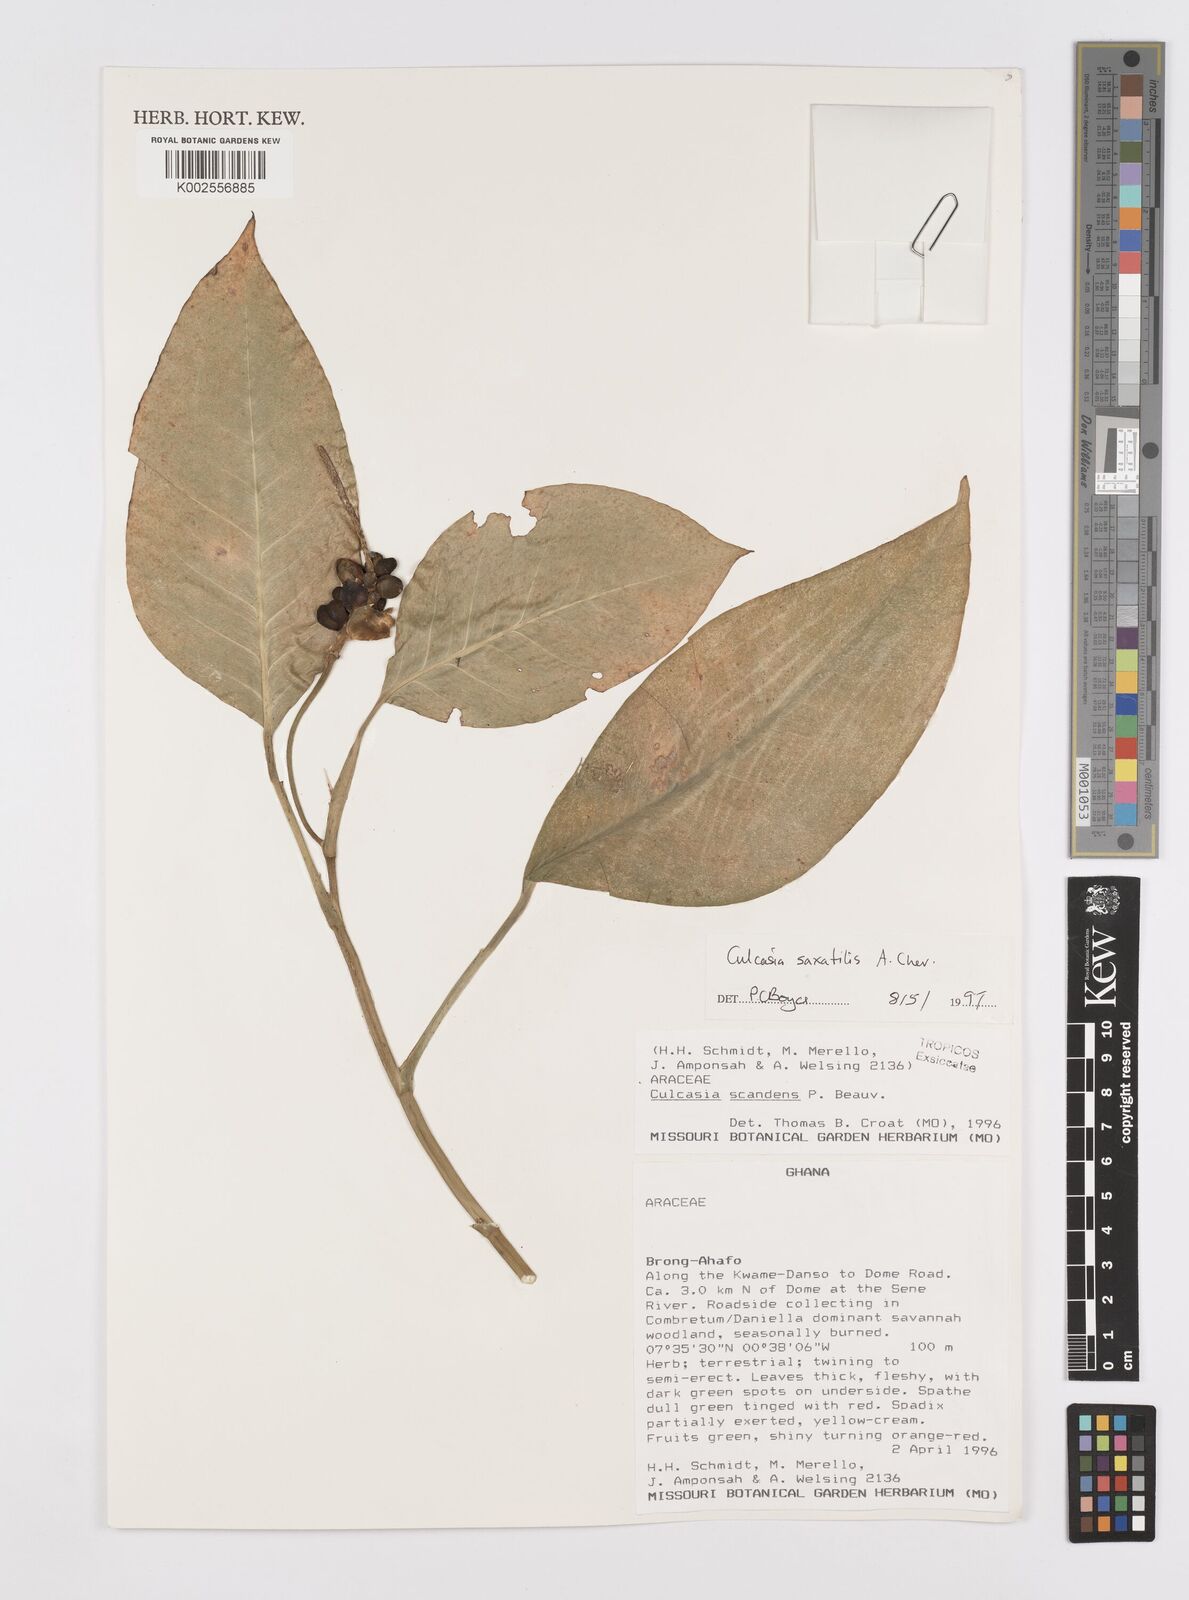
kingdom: Plantae
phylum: Tracheophyta
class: Liliopsida
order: Alismatales
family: Araceae
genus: Culcasia
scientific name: Culcasia scandens
